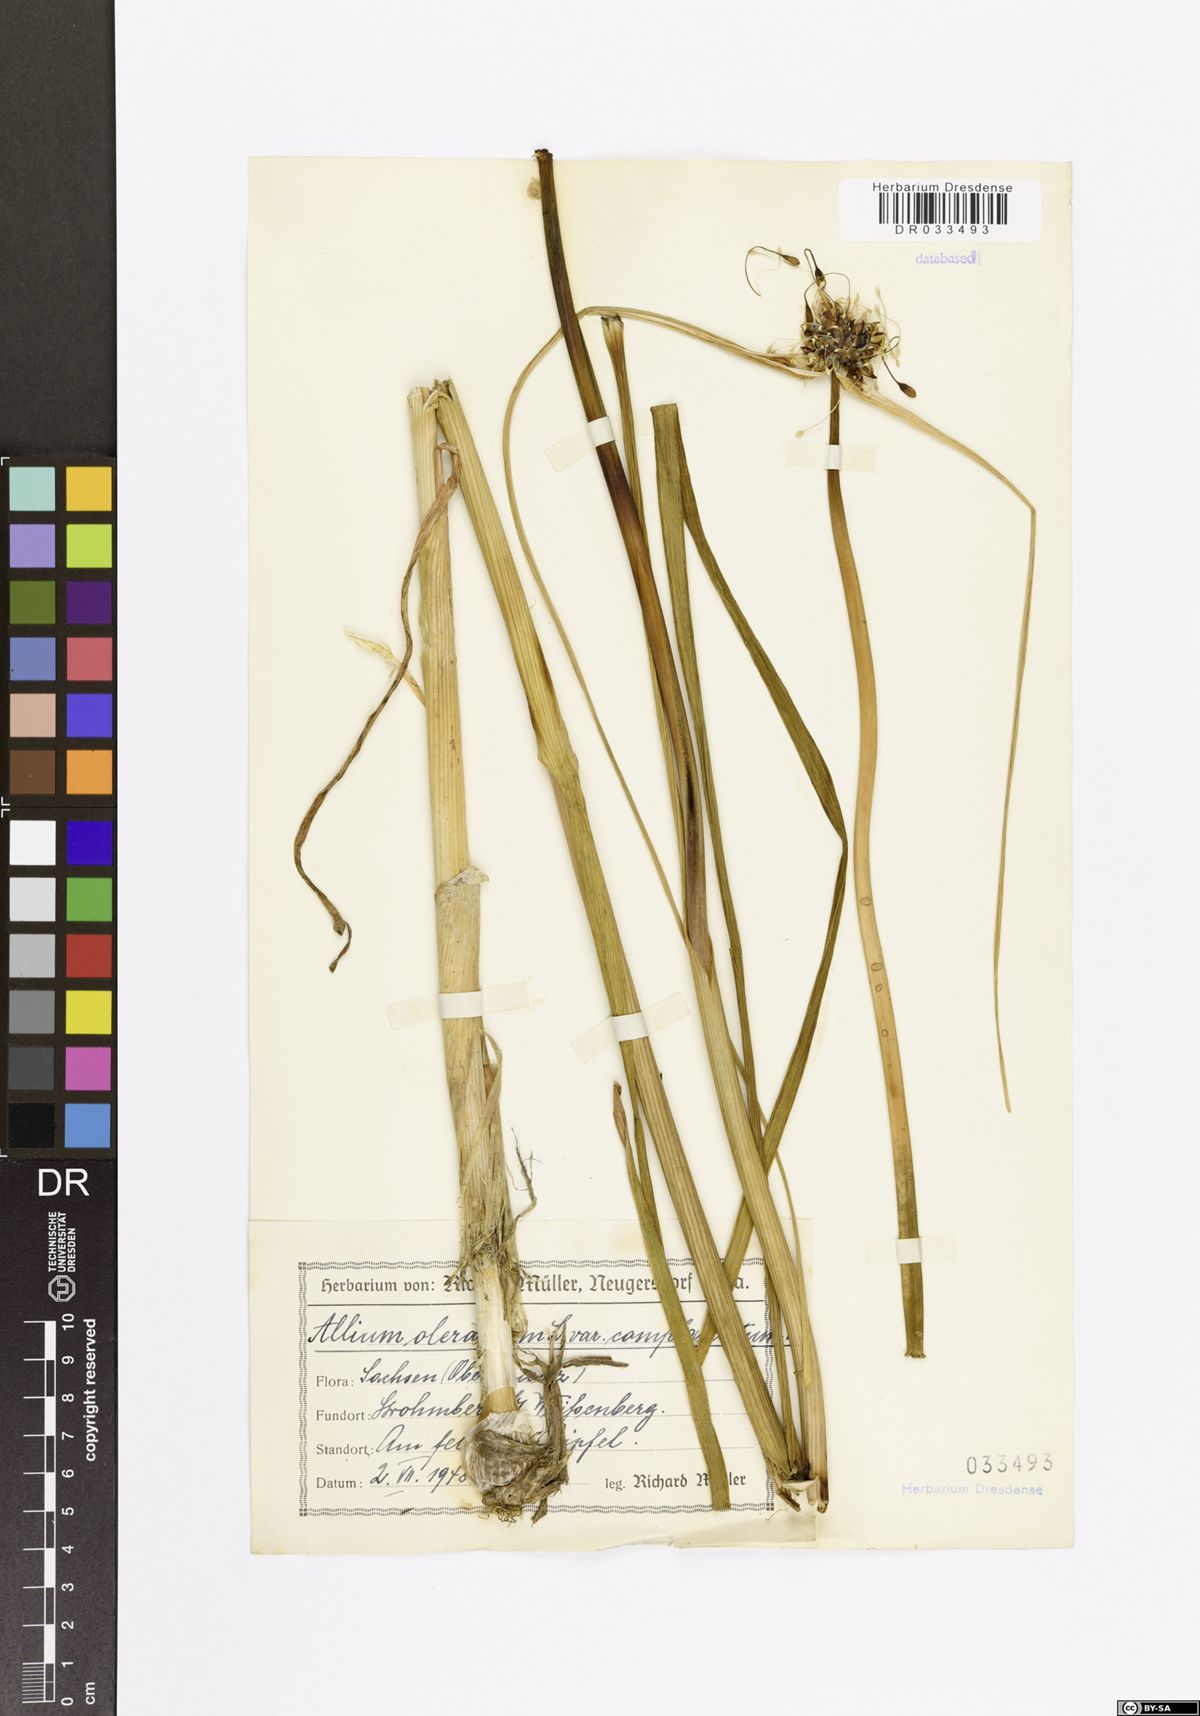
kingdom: Plantae
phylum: Tracheophyta
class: Liliopsida
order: Asparagales
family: Amaryllidaceae
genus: Allium
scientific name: Allium oleraceum
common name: Field garlic
